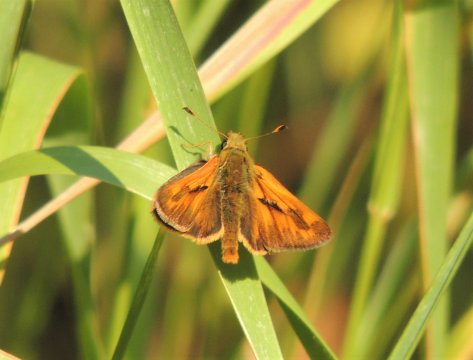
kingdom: Animalia
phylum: Arthropoda
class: Insecta
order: Lepidoptera
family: Hesperiidae
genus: Ochlodes
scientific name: Ochlodes sylvanoides
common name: Woodland Skipper
